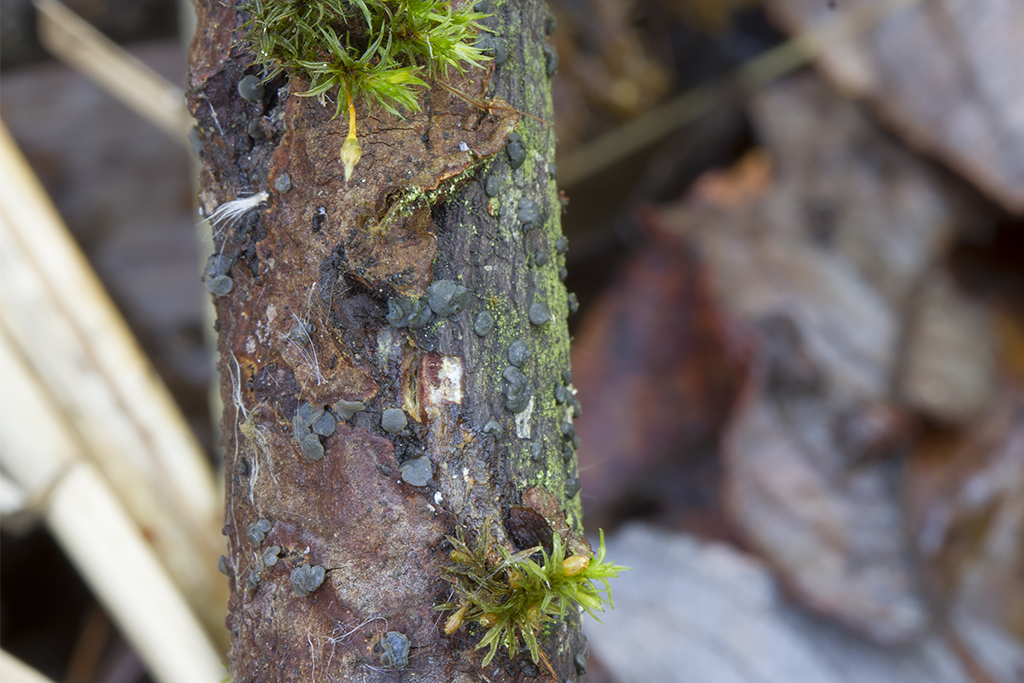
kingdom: Fungi
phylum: Ascomycota
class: Leotiomycetes
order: Leotiales
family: Tympanidaceae
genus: Vexillomyces
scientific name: Vexillomyces atrovirens
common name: sortgrøn linseskive
